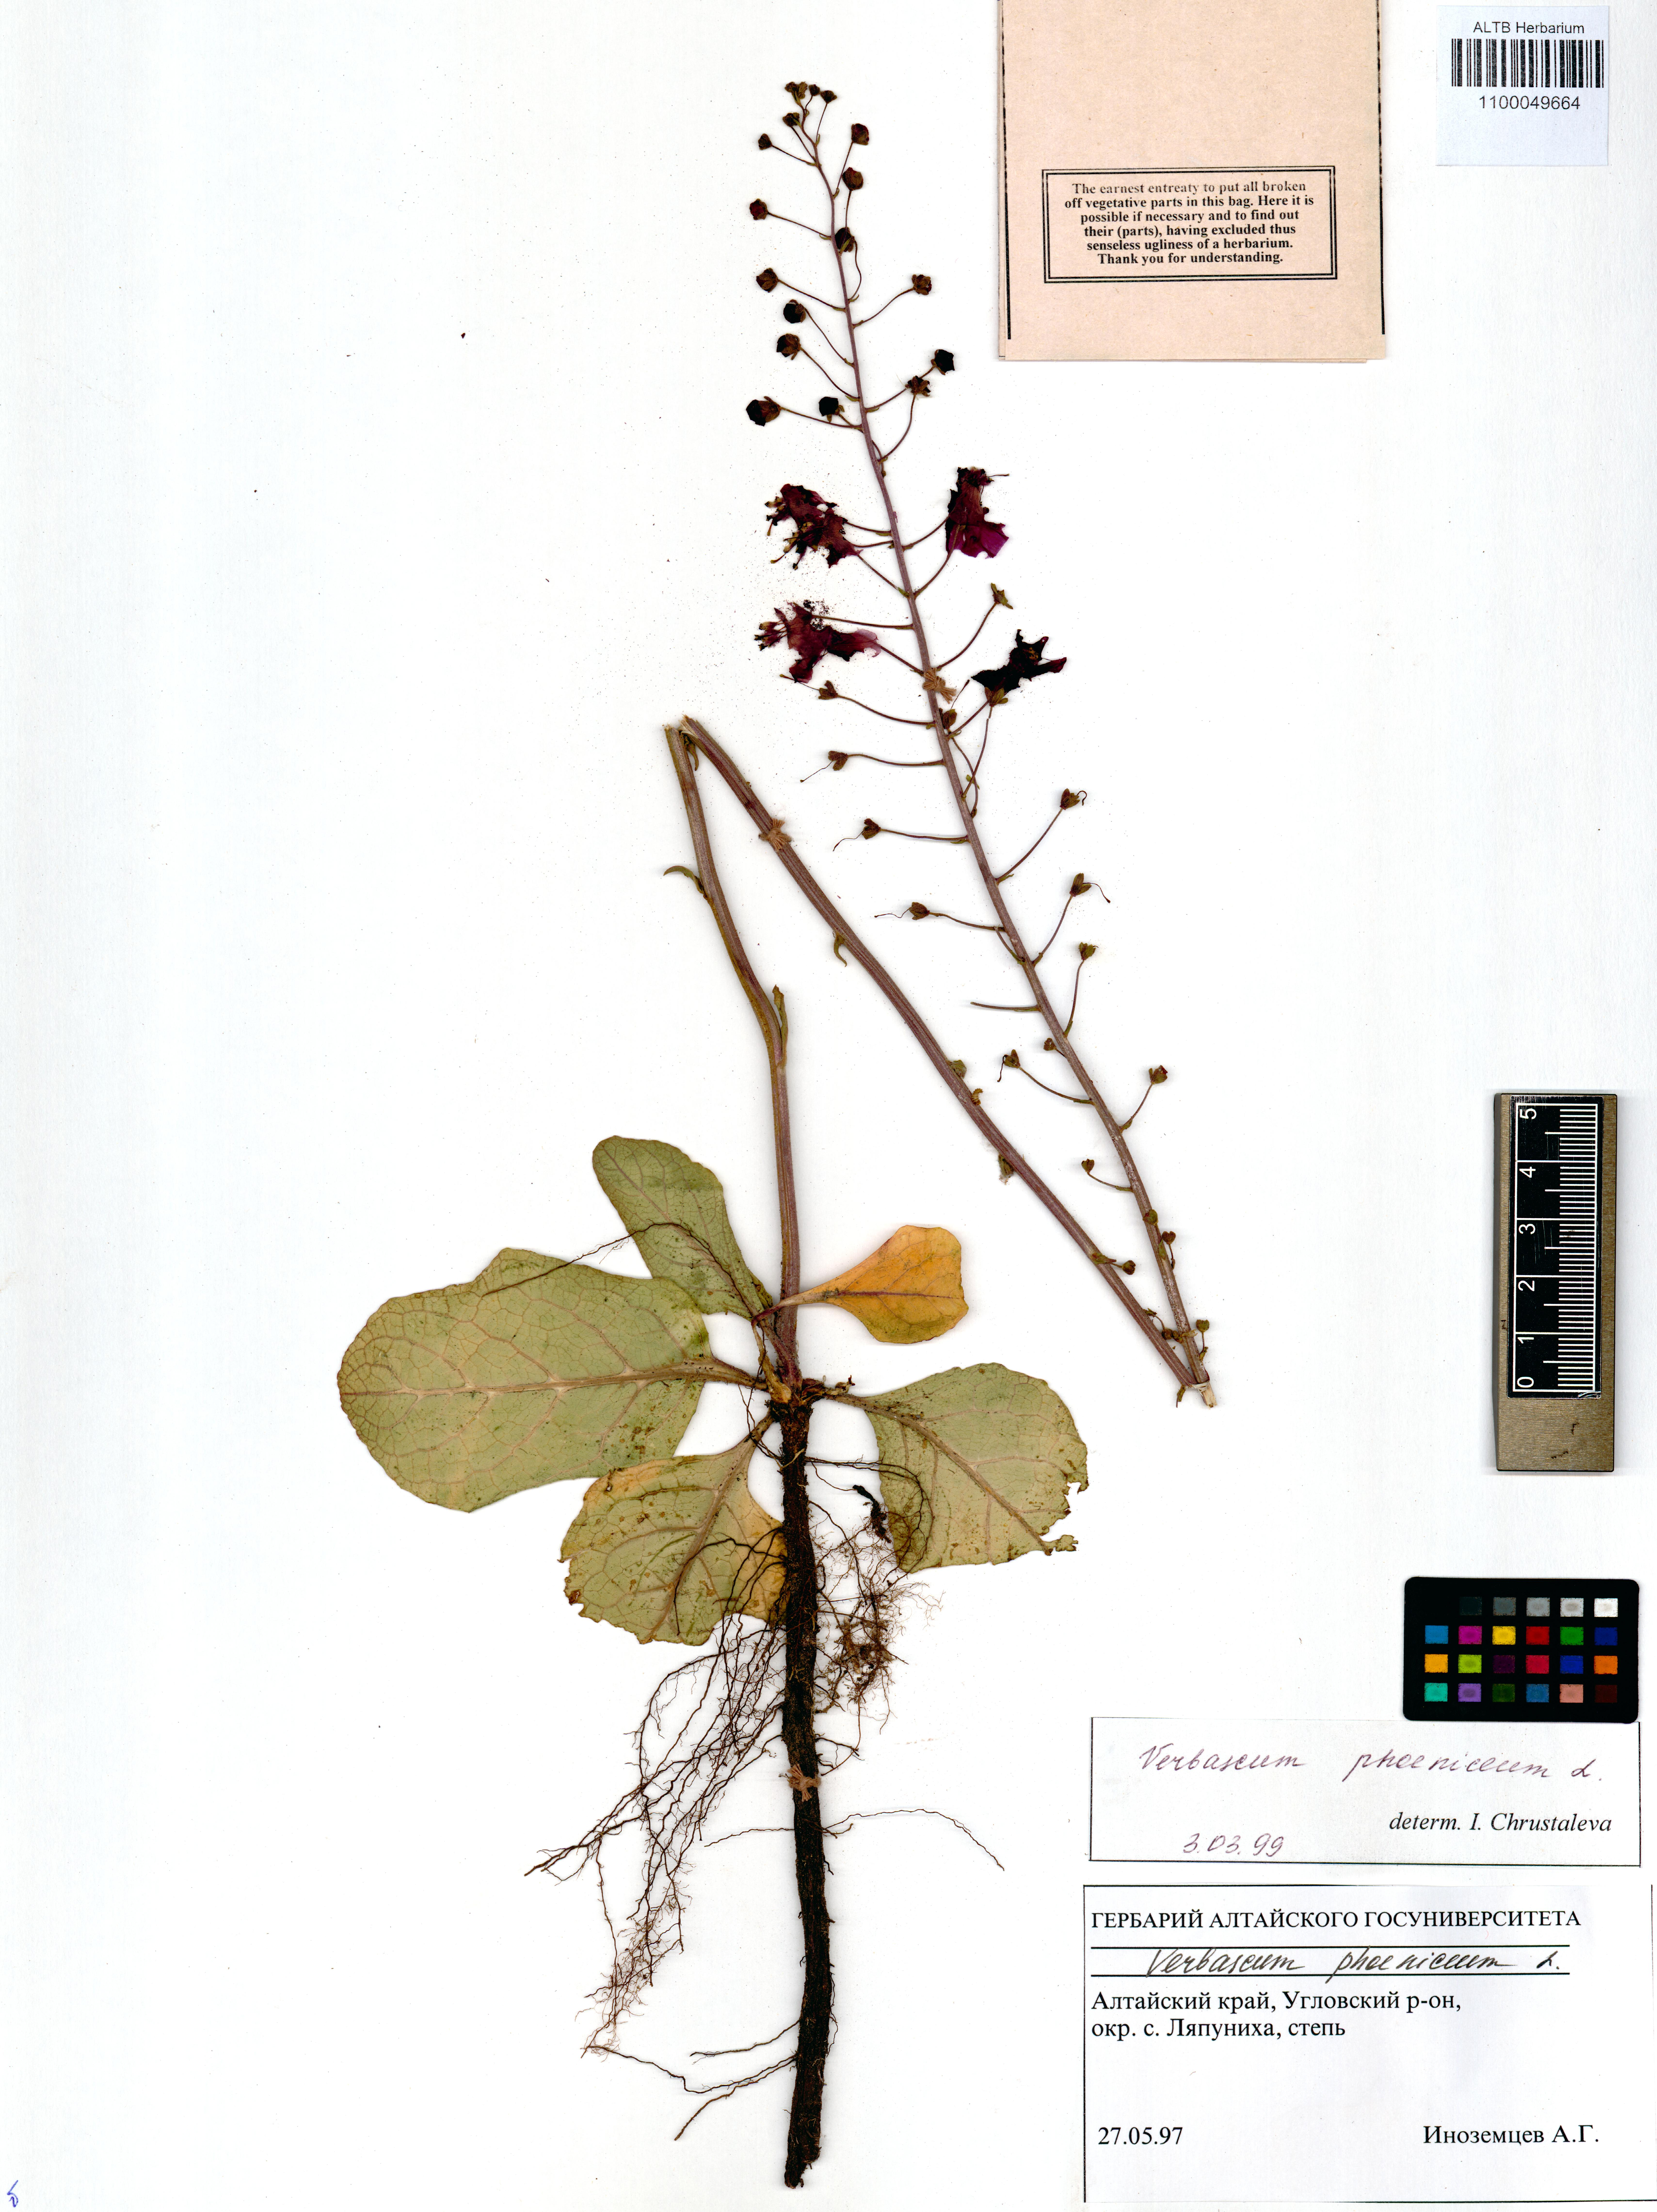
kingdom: Plantae
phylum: Tracheophyta
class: Magnoliopsida
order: Lamiales
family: Scrophulariaceae
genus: Verbascum
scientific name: Verbascum phoeniceum
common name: Purple mullein
